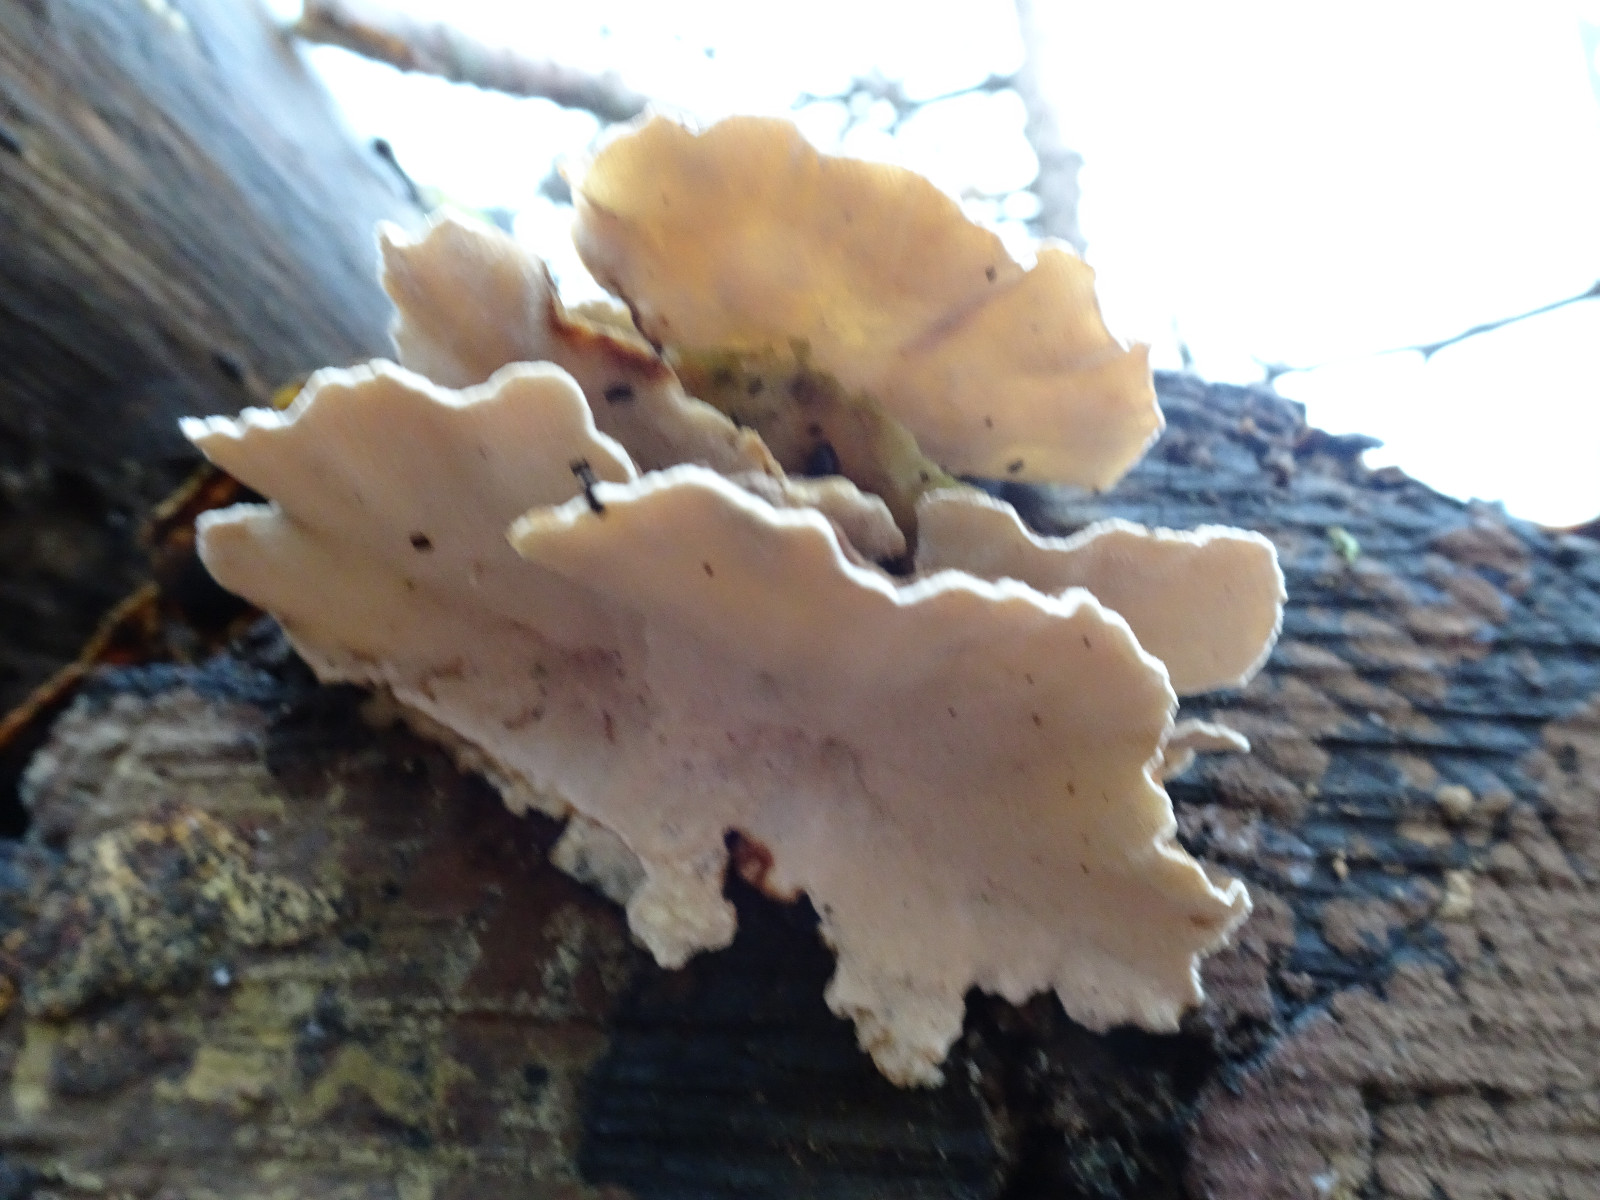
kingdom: Fungi
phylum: Basidiomycota
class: Agaricomycetes
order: Polyporales
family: Polyporaceae
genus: Trametes
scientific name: Trametes versicolor
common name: broget læderporesvamp
